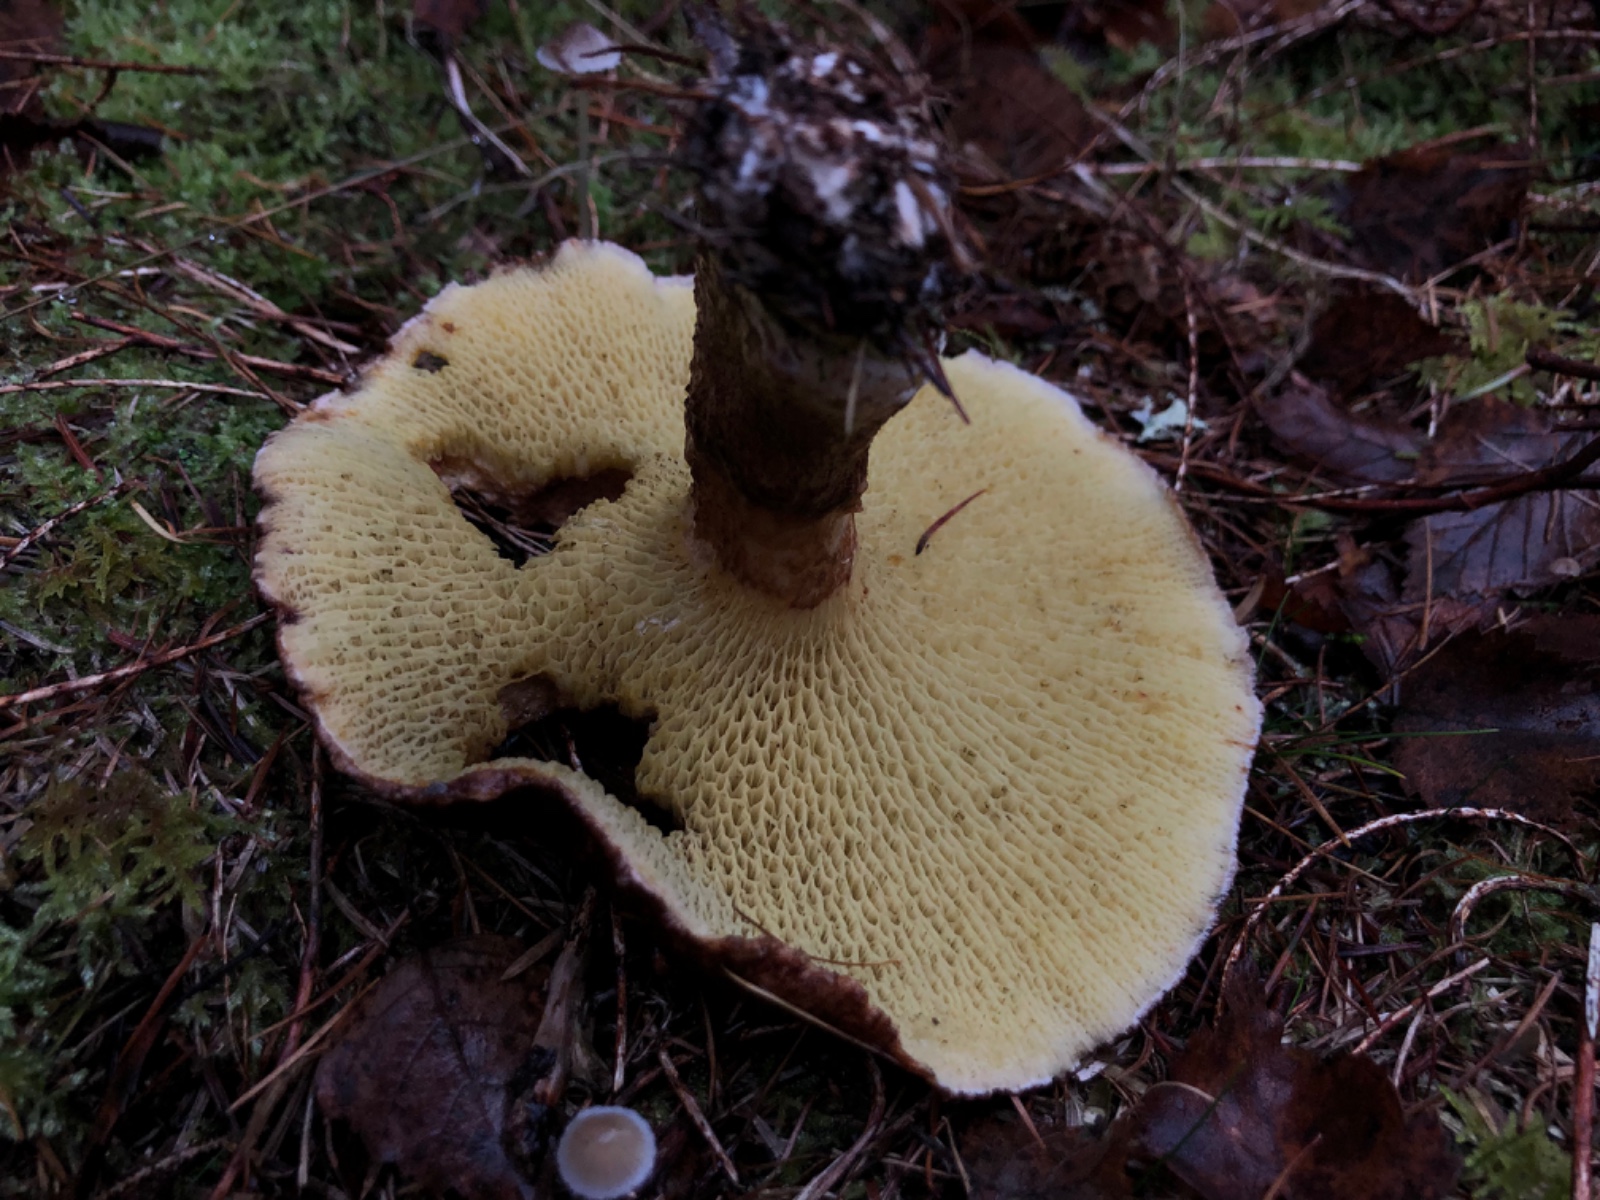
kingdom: Fungi
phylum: Basidiomycota
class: Agaricomycetes
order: Boletales
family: Suillaceae
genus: Suillus
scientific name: Suillus cavipes
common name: hulstokket slimrørhat
